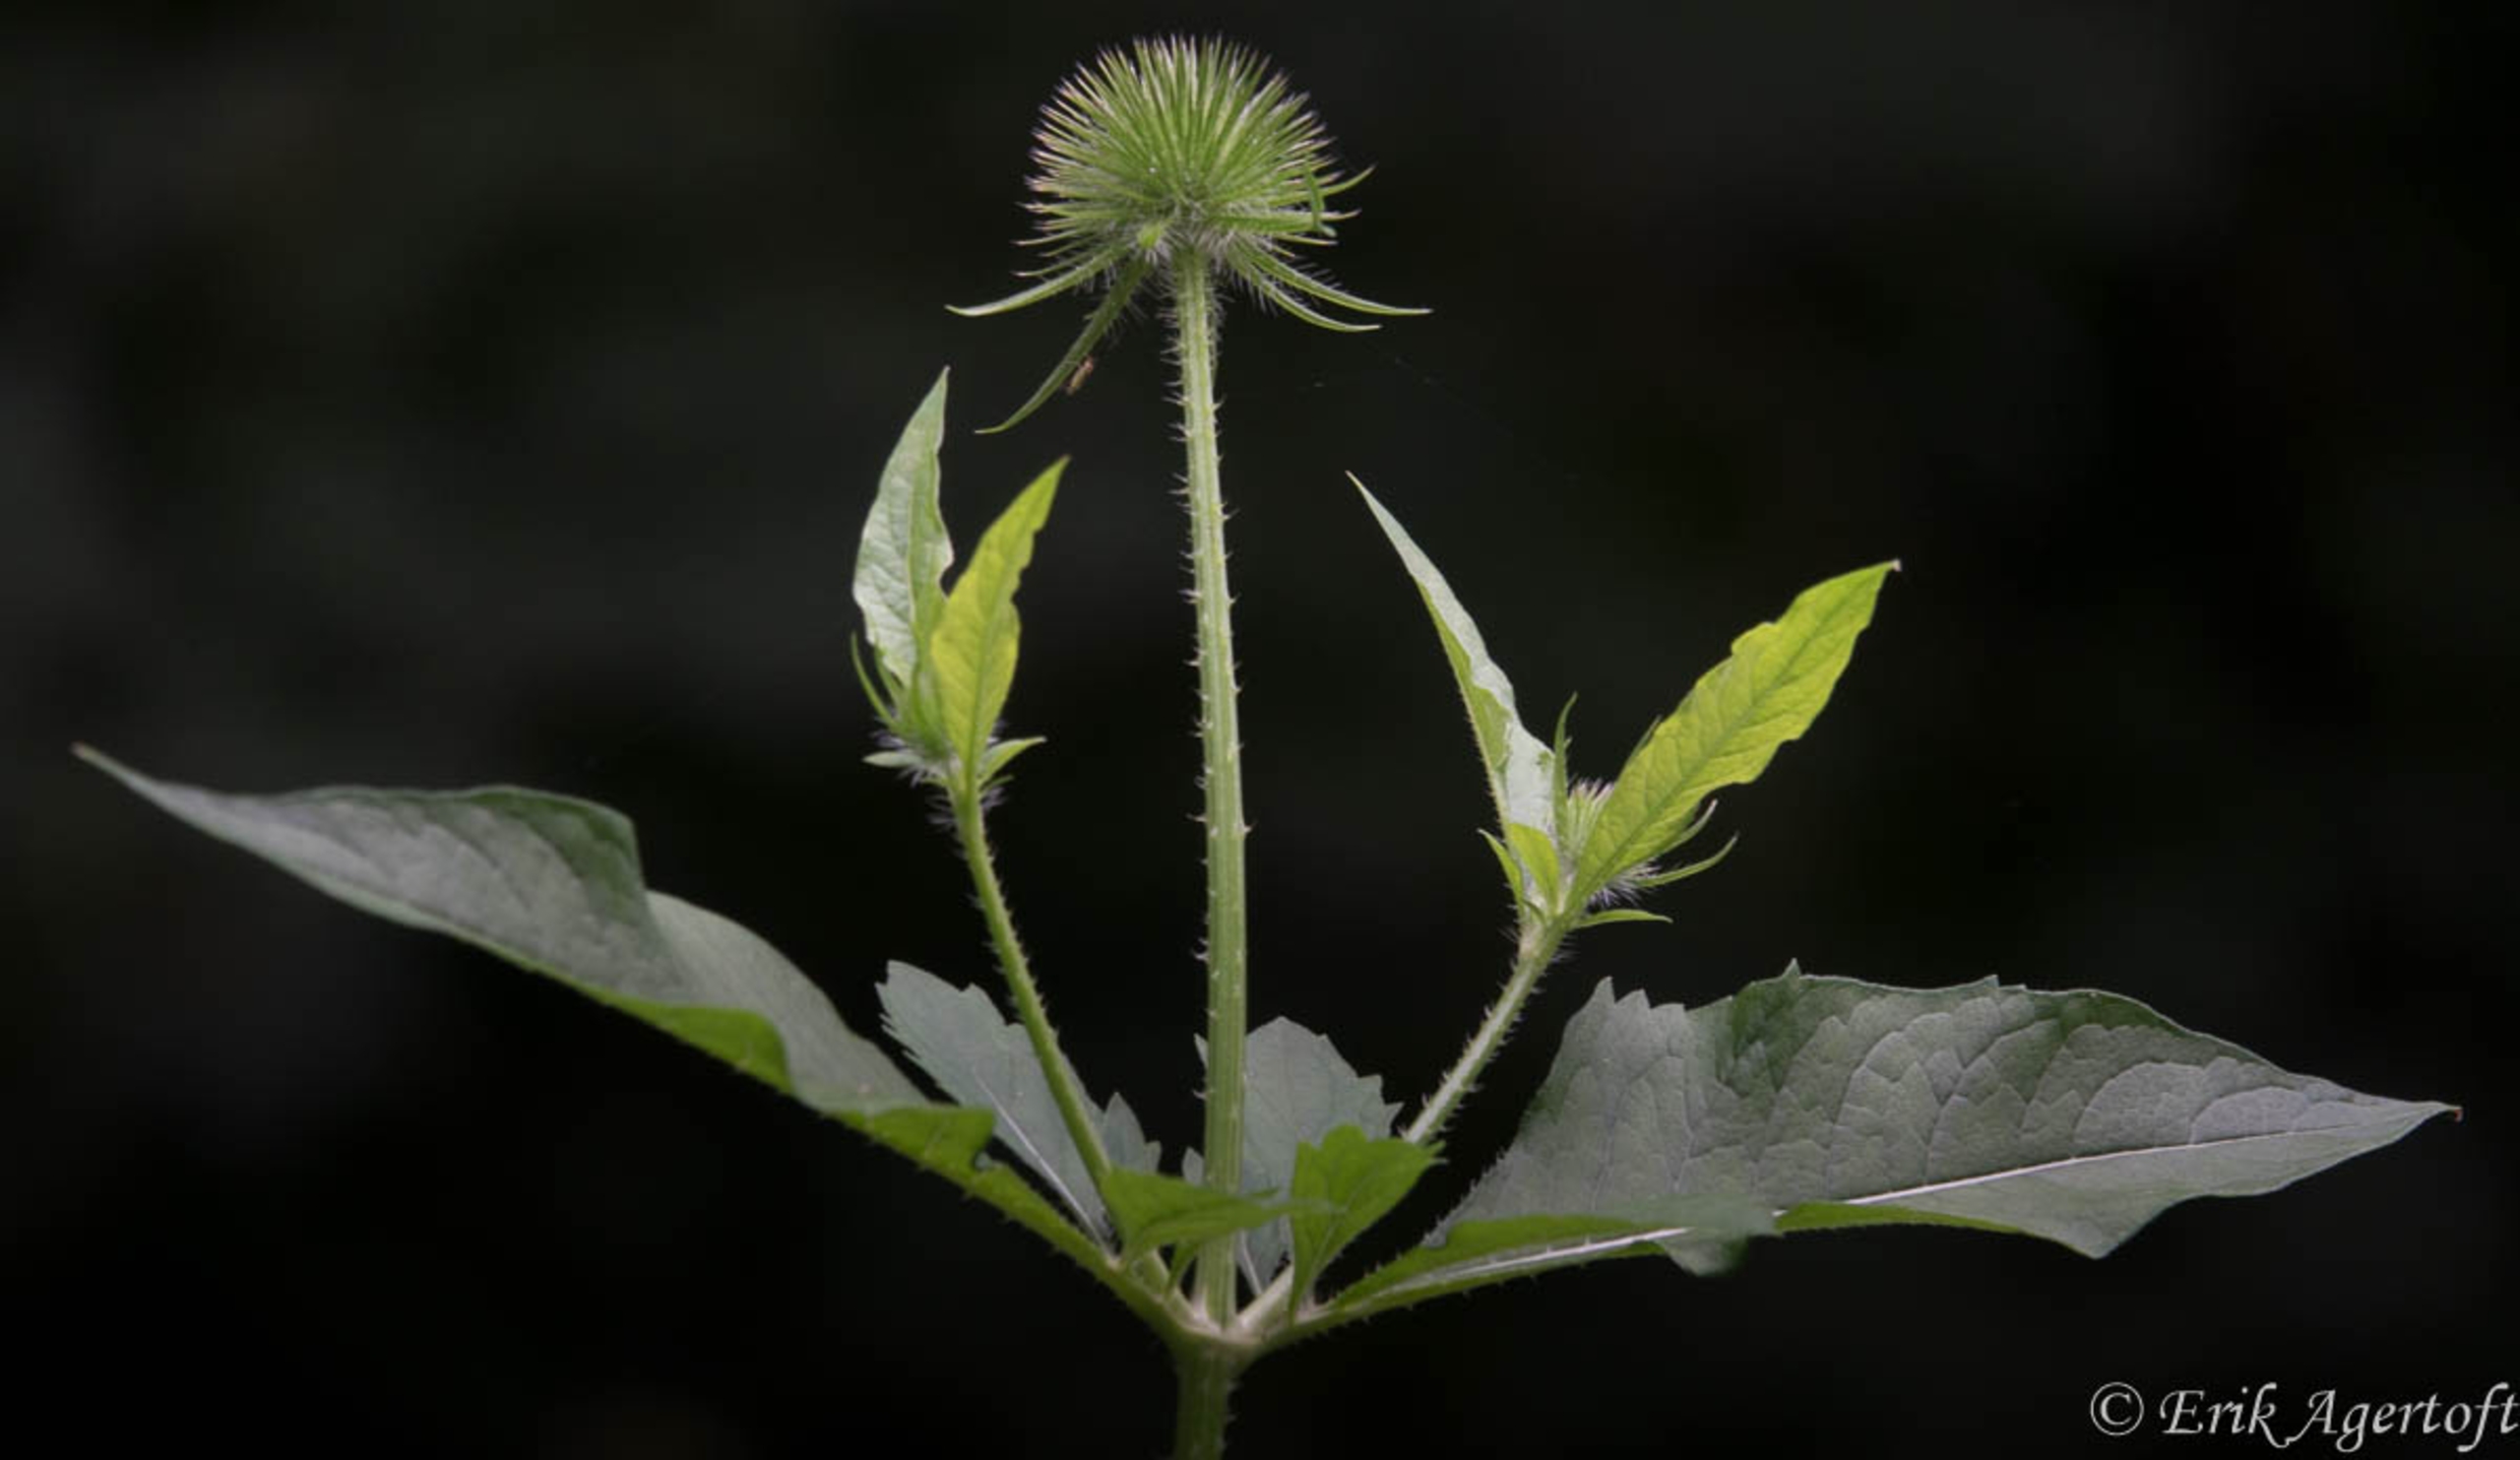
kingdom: Plantae
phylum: Tracheophyta
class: Magnoliopsida
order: Dipsacales
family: Caprifoliaceae
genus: Dipsacus
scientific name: Dipsacus strigosus
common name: Pindsvin-kartebolle
